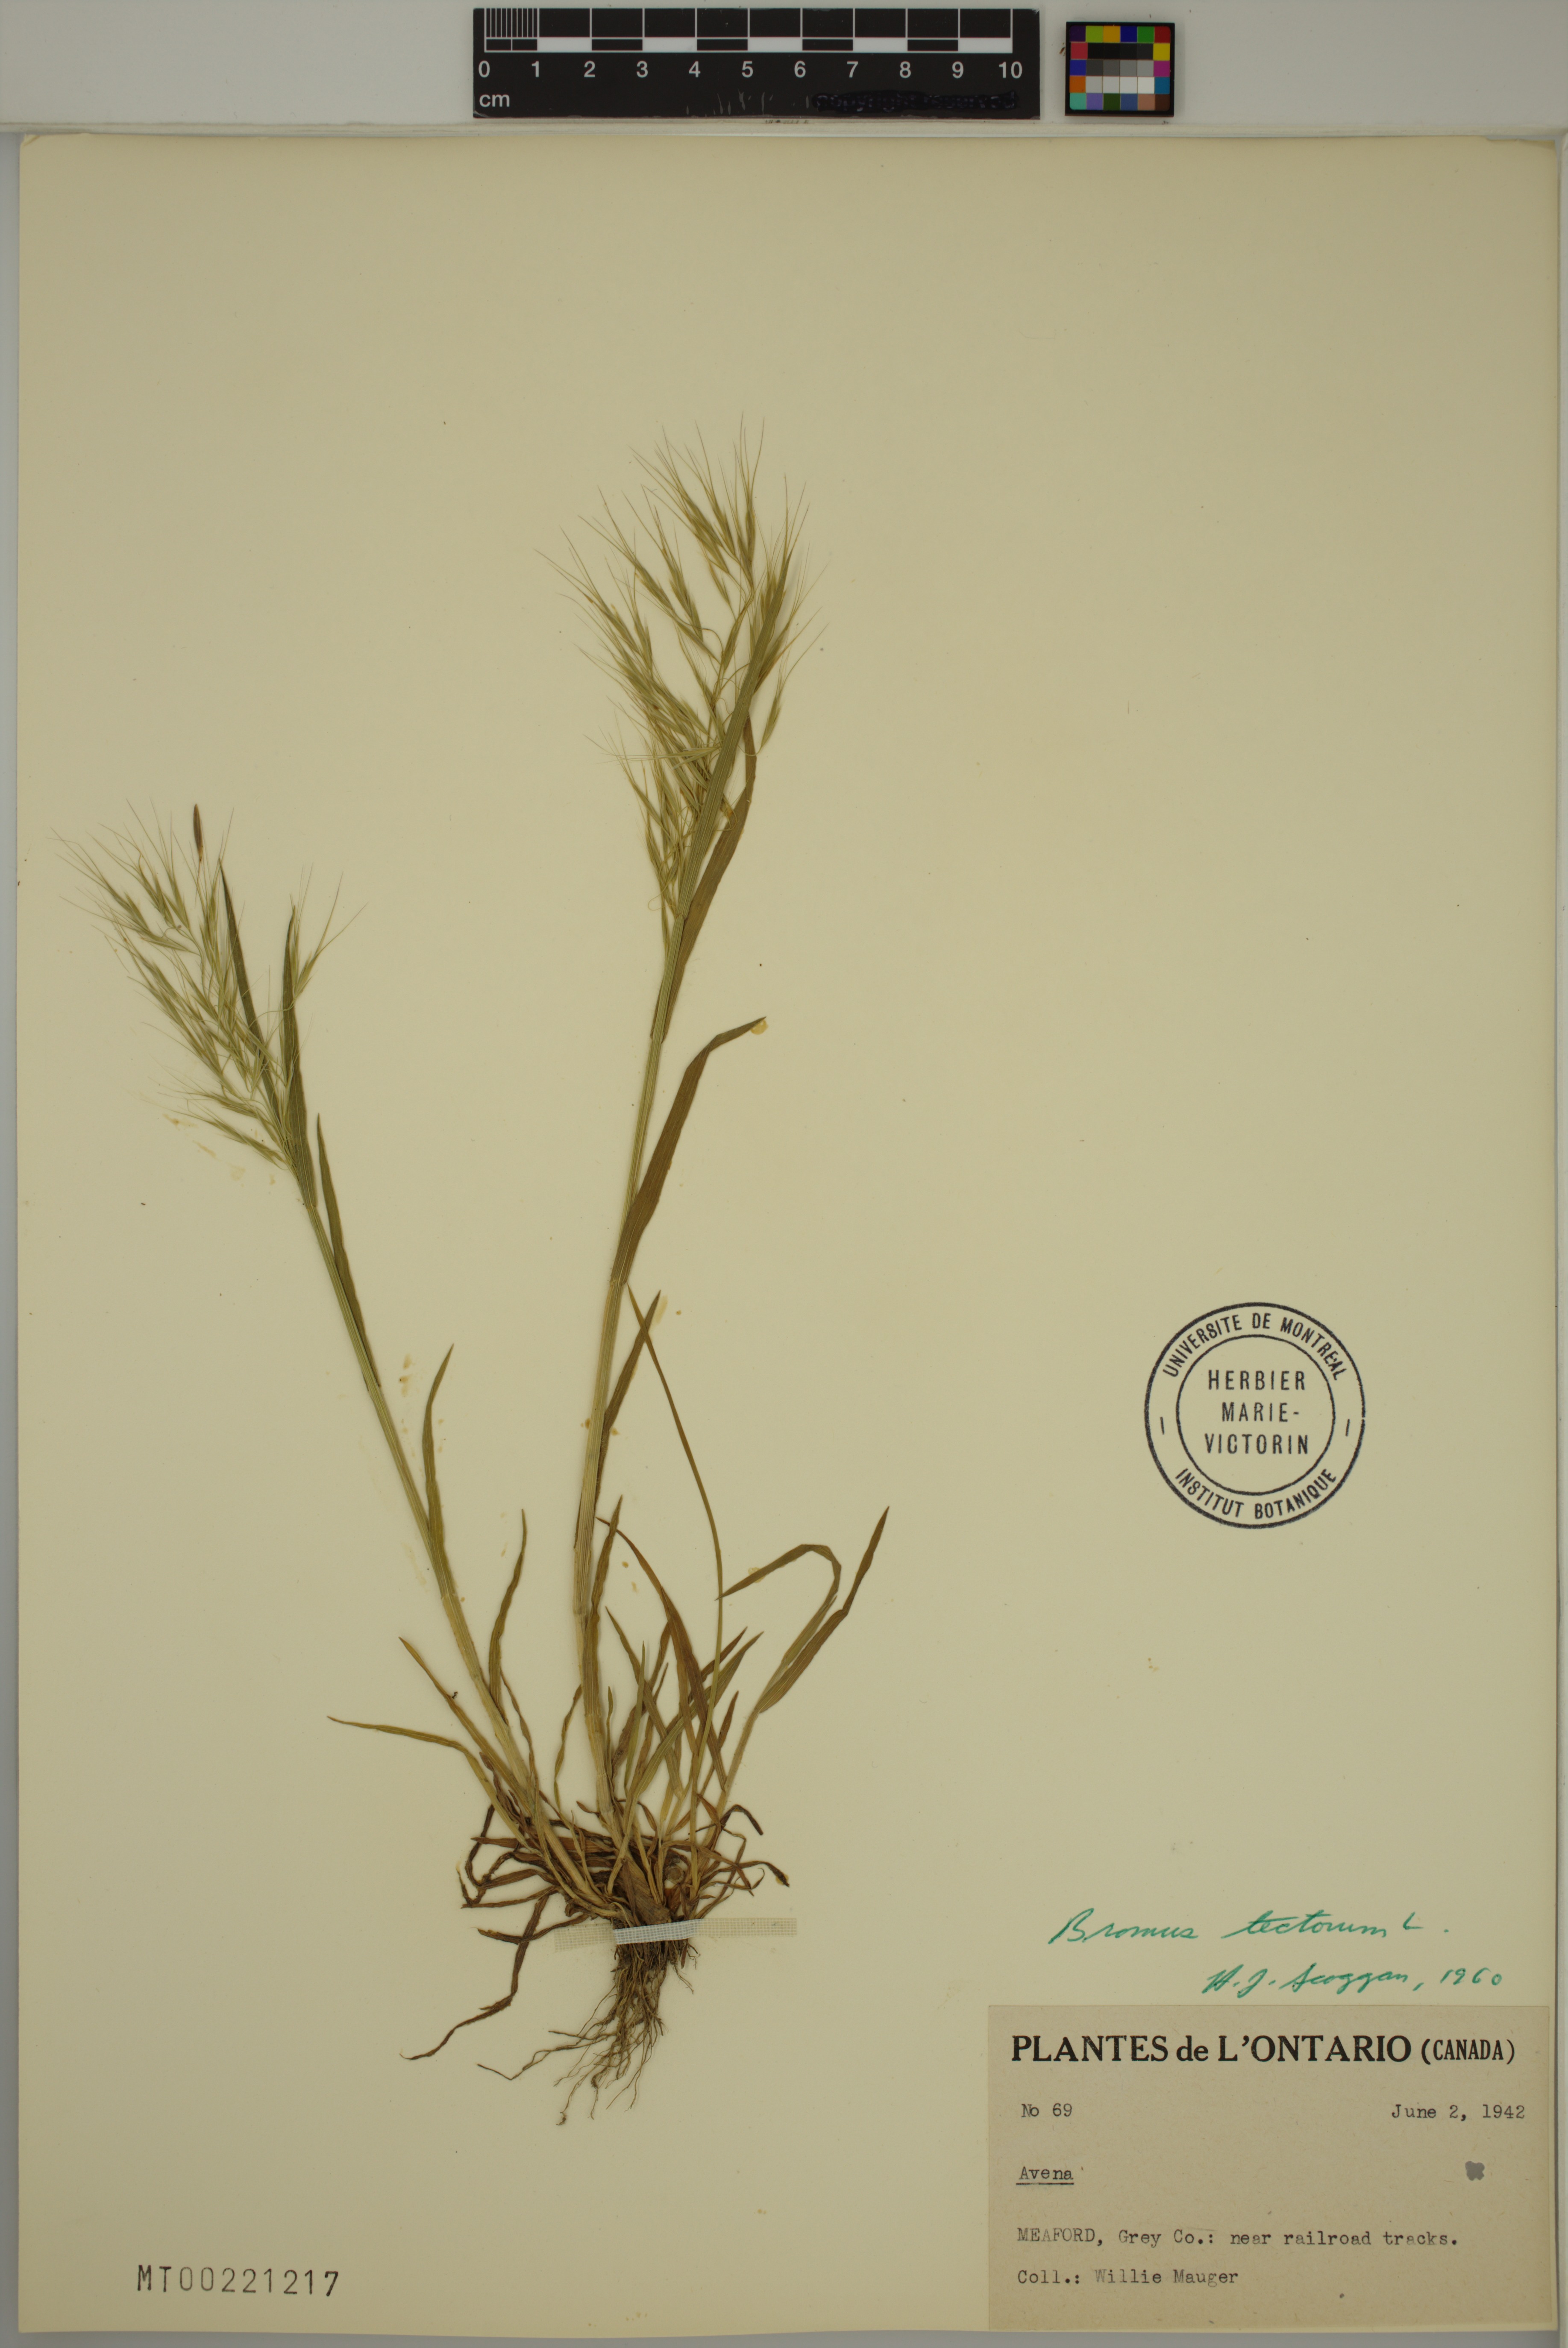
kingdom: Plantae
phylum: Tracheophyta
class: Liliopsida
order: Poales
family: Poaceae
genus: Bromus
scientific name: Bromus tectorum
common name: Cheatgrass
